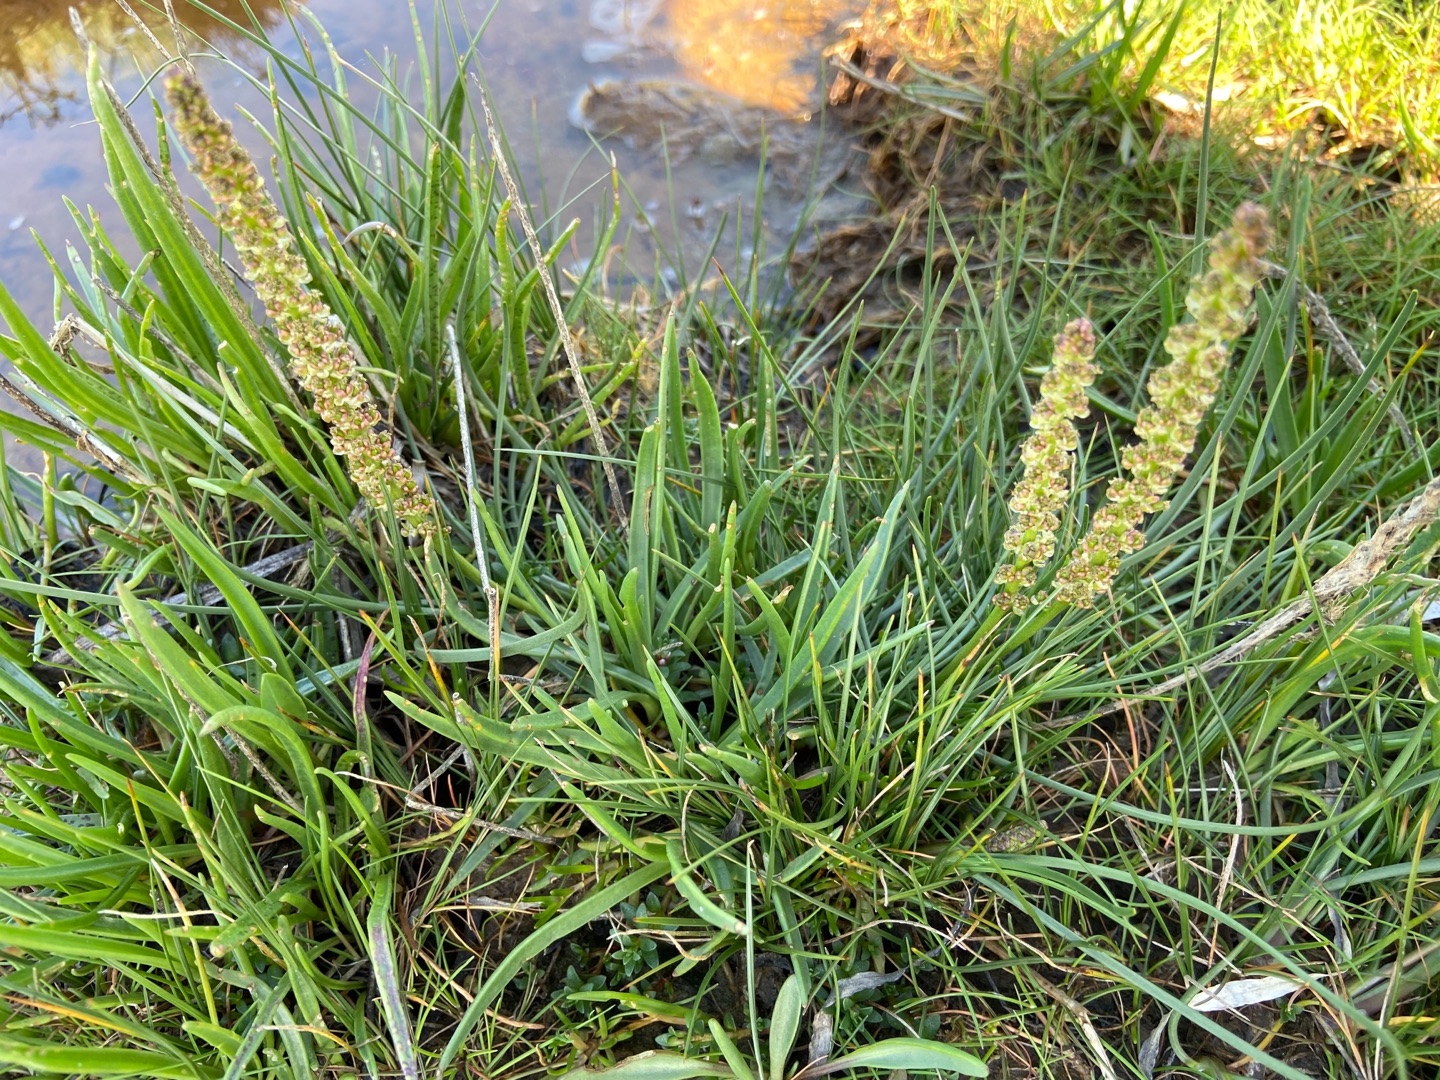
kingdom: Plantae
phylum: Tracheophyta
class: Liliopsida
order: Alismatales
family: Juncaginaceae
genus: Triglochin
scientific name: Triglochin maritima
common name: Strand-trehage
